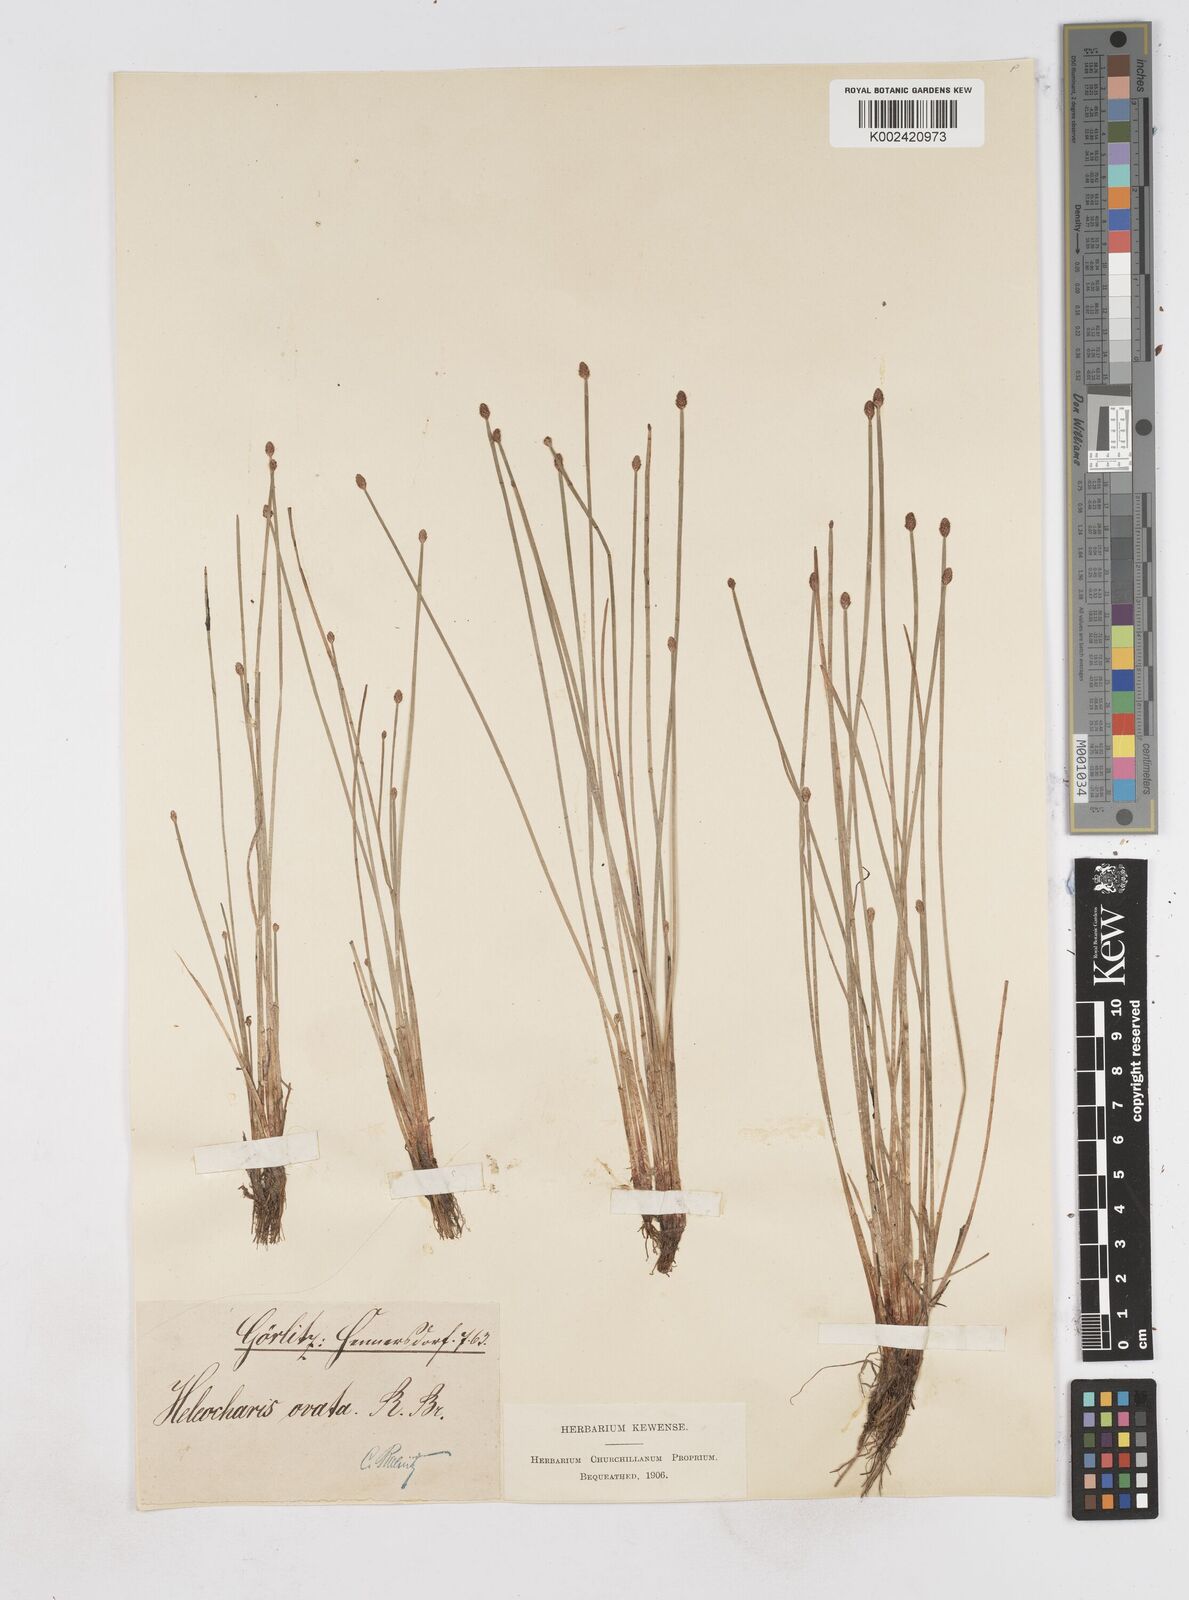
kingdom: Plantae
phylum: Tracheophyta
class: Liliopsida
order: Poales
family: Cyperaceae
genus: Eleocharis
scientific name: Eleocharis ovata
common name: Oval spike-rush
